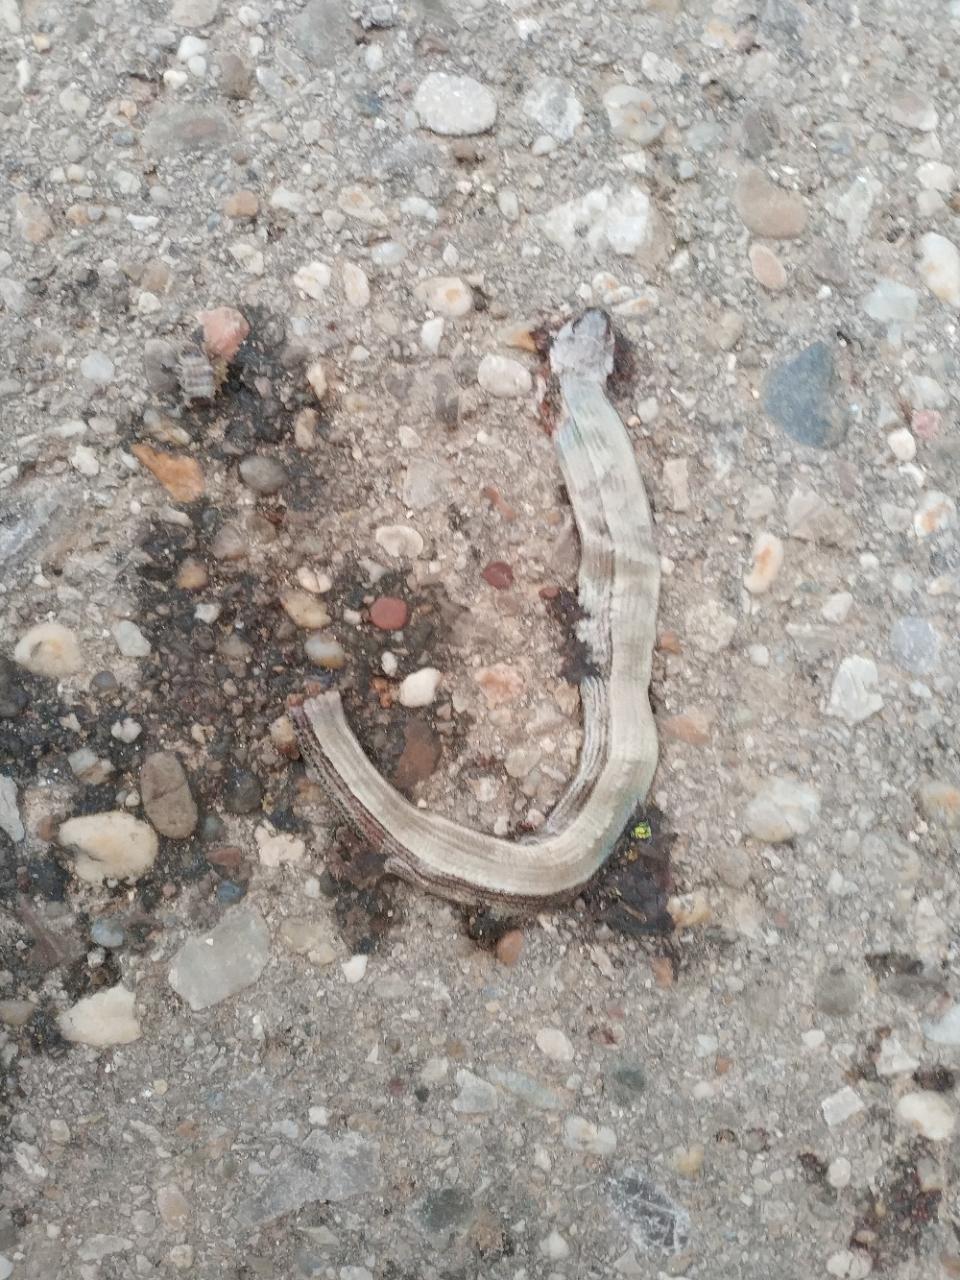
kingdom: Animalia
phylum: Chordata
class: Squamata
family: Anguidae
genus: Anguis
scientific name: Anguis fragilis
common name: Slow worm
